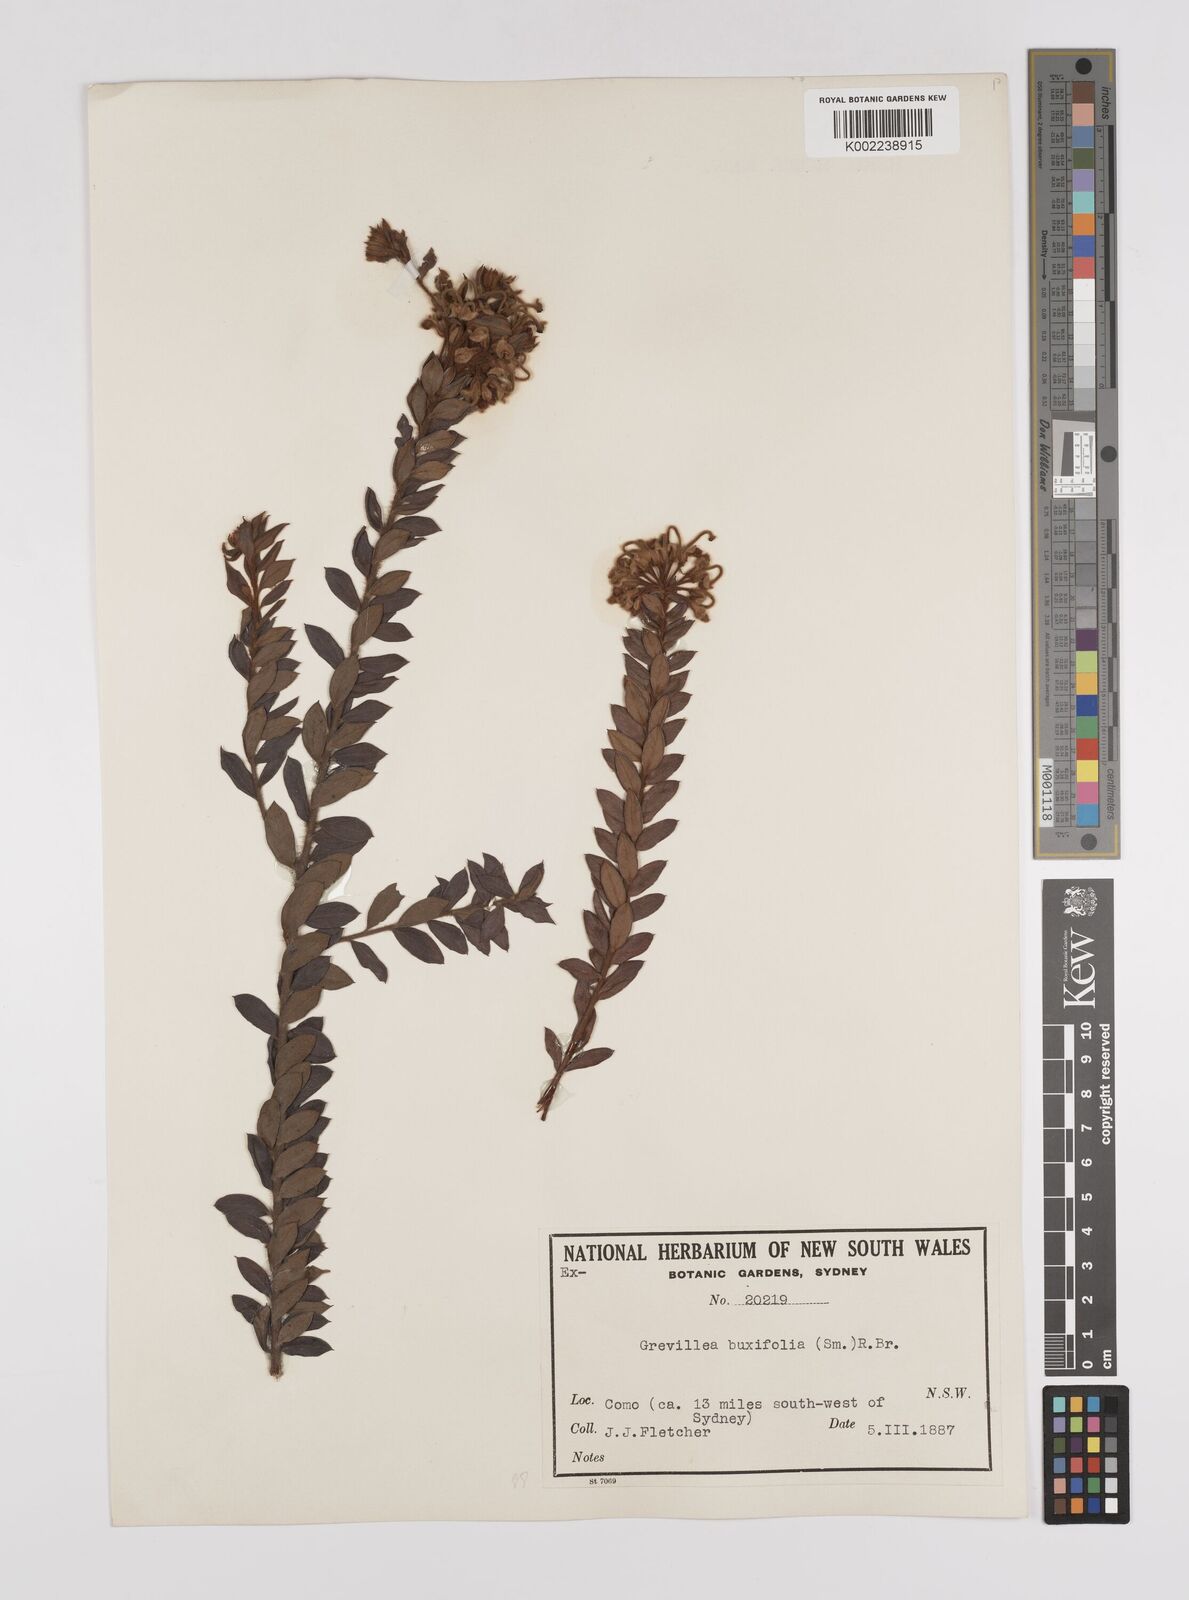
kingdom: Plantae
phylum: Tracheophyta
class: Magnoliopsida
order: Proteales
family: Proteaceae
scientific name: Proteaceae
